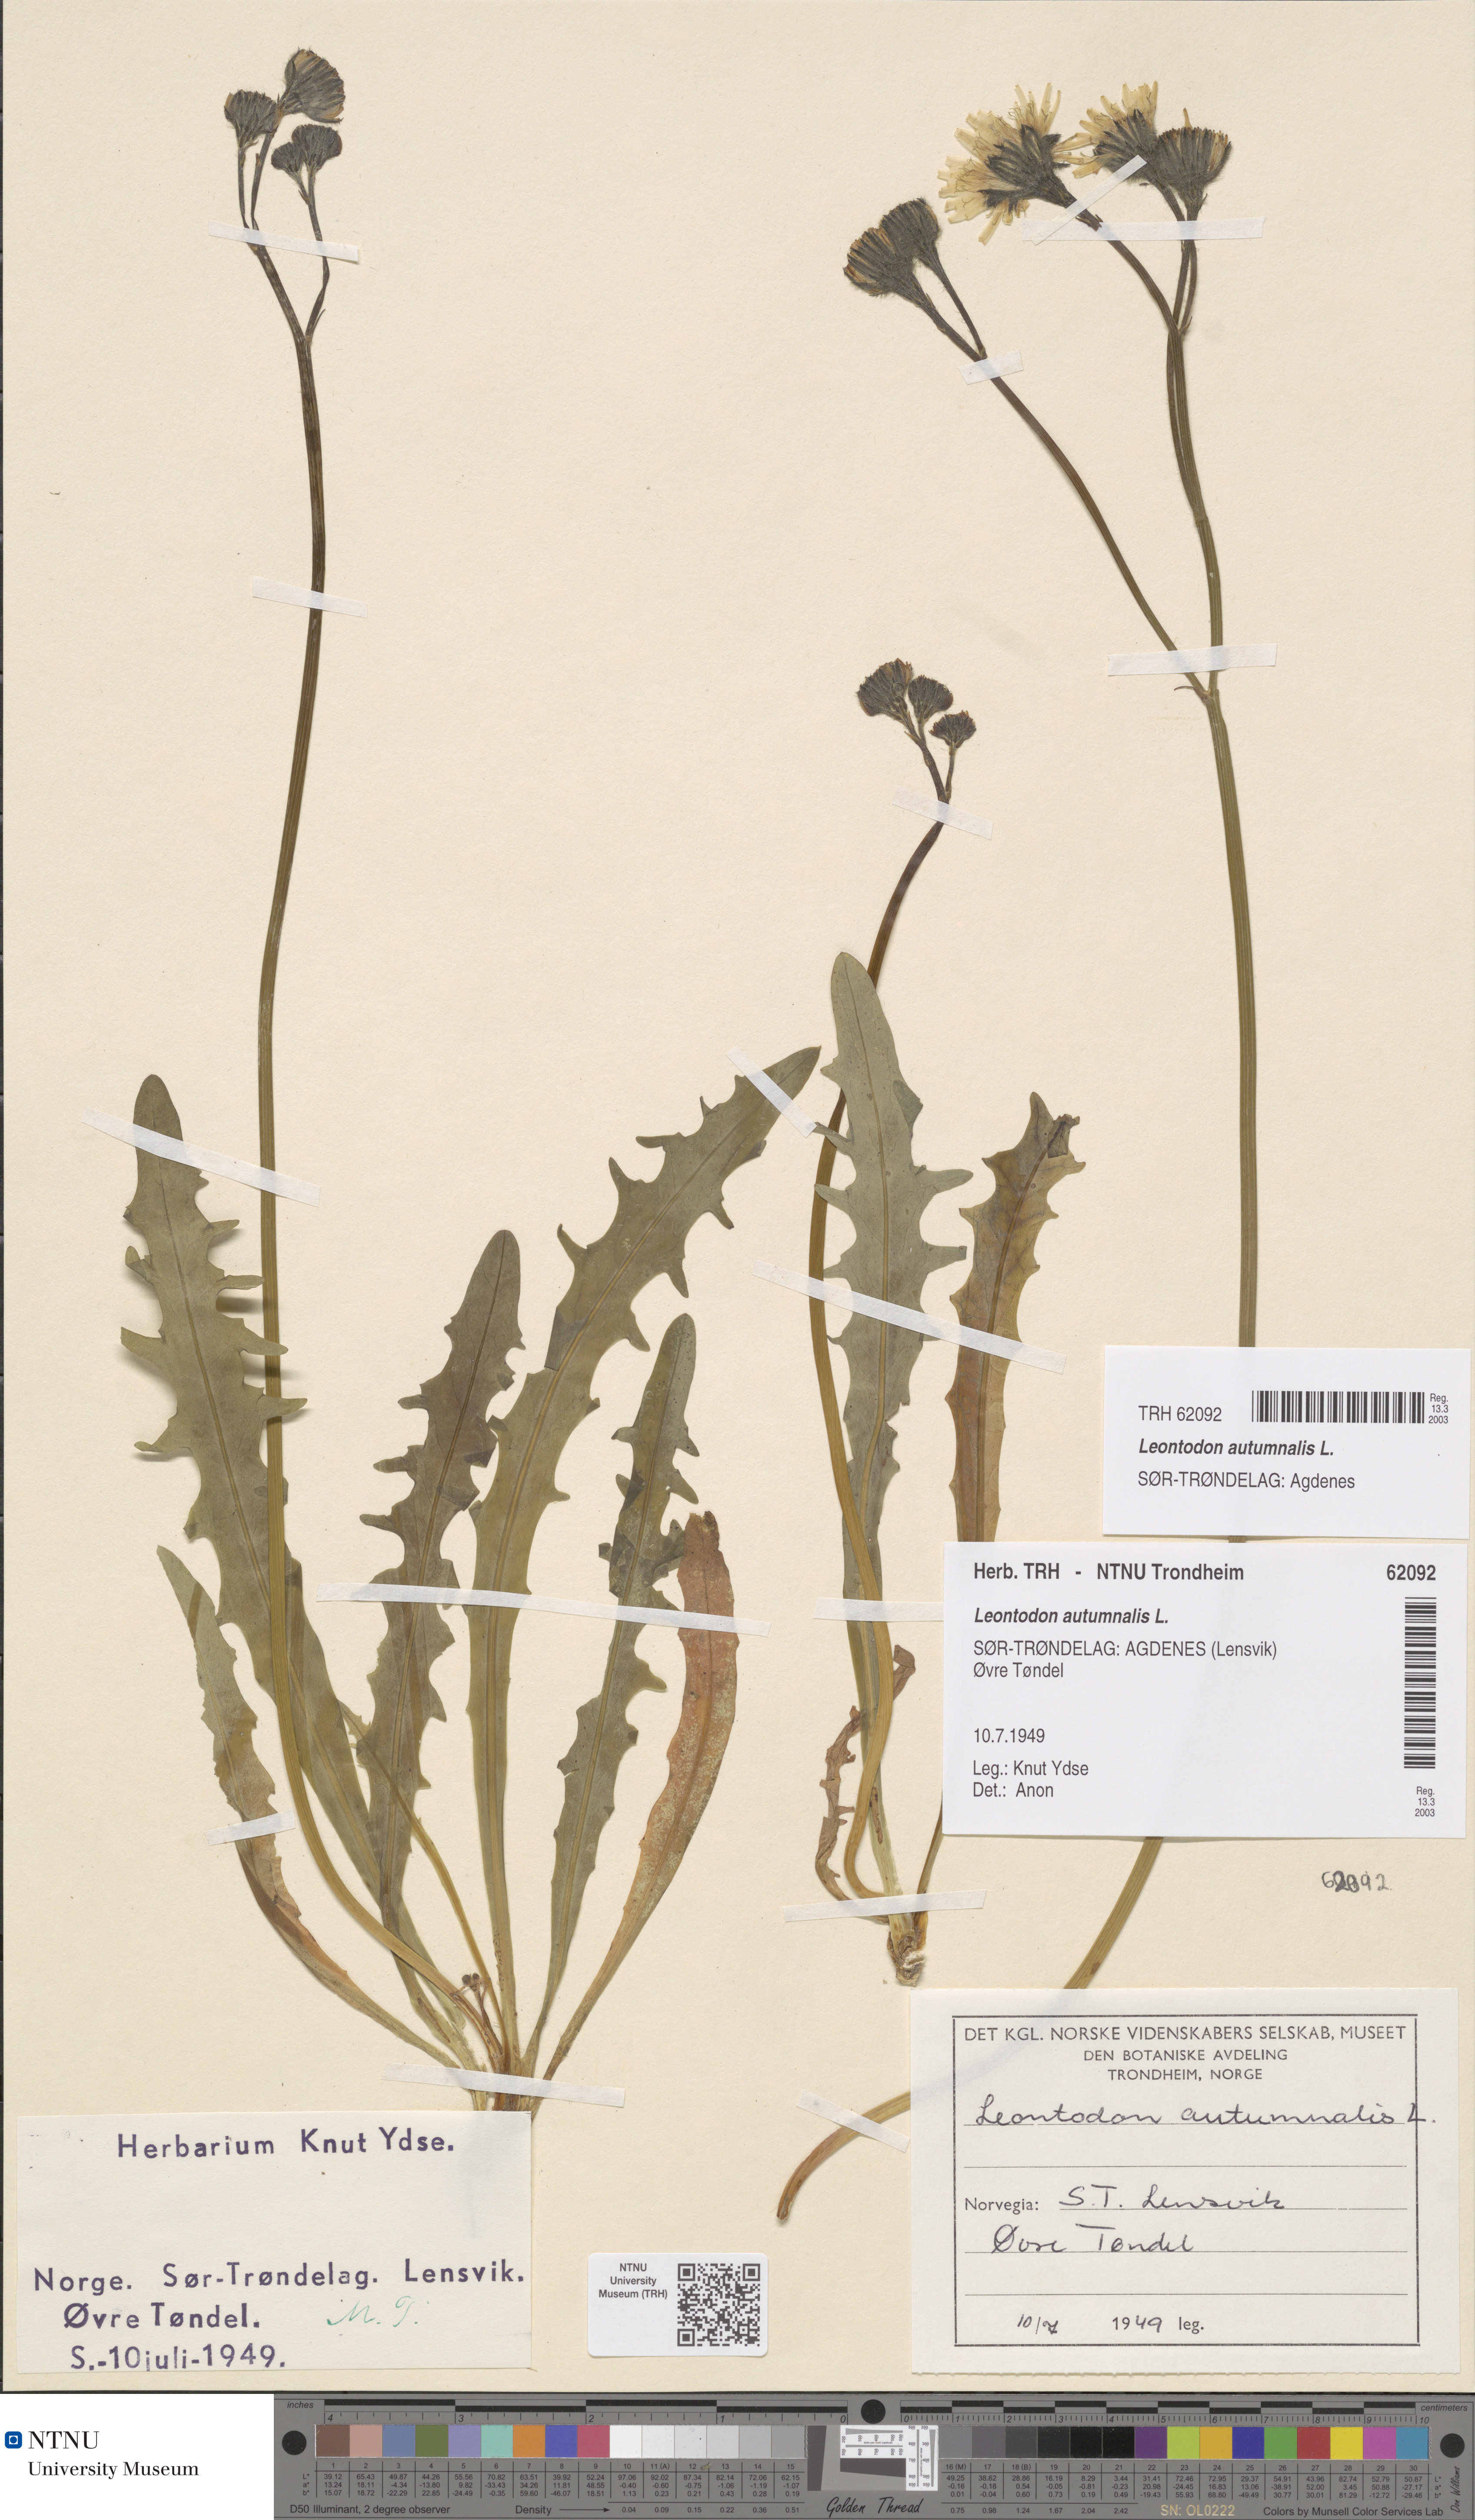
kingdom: Plantae
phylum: Tracheophyta
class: Magnoliopsida
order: Asterales
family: Asteraceae
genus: Scorzoneroides
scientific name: Scorzoneroides autumnalis
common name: Autumn hawkbit
